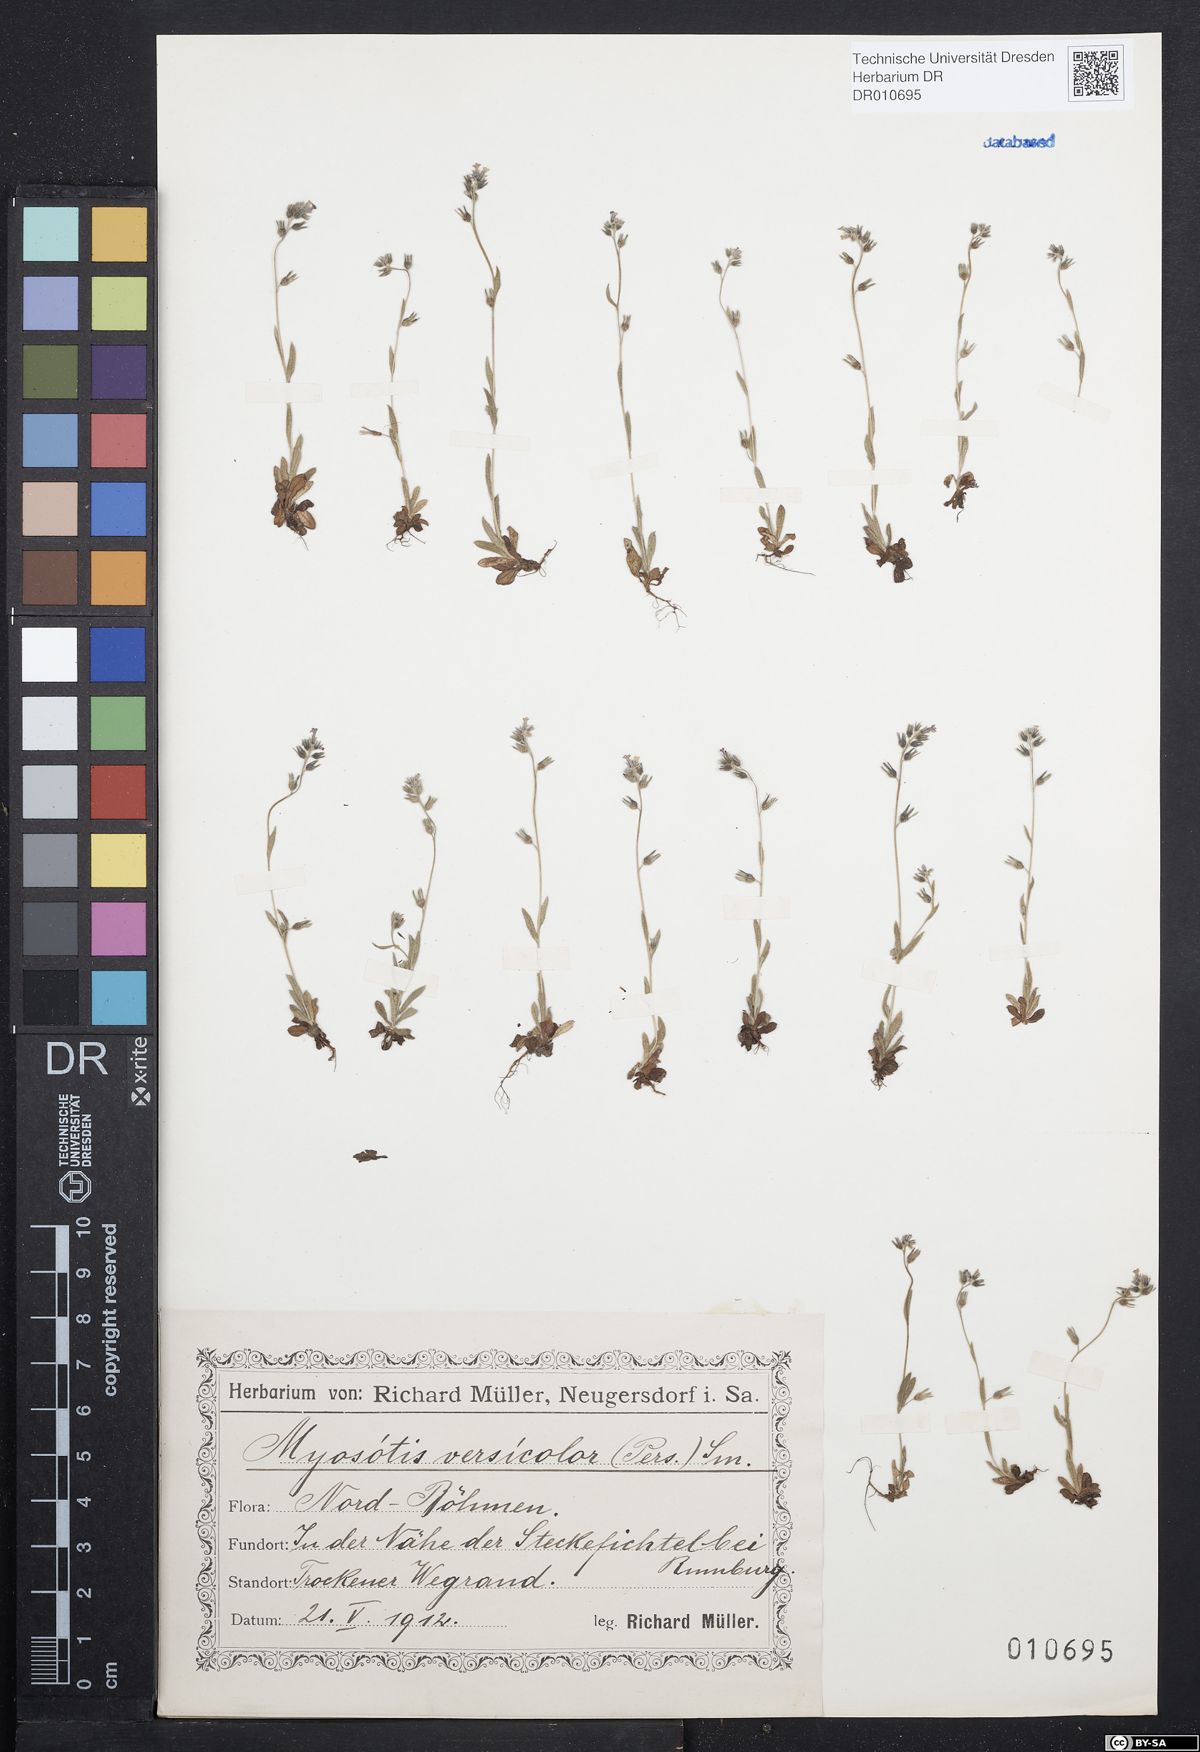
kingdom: Plantae
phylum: Tracheophyta
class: Magnoliopsida
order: Boraginales
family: Boraginaceae
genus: Myosotis
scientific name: Myosotis discolor
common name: Changing forget-me-not
